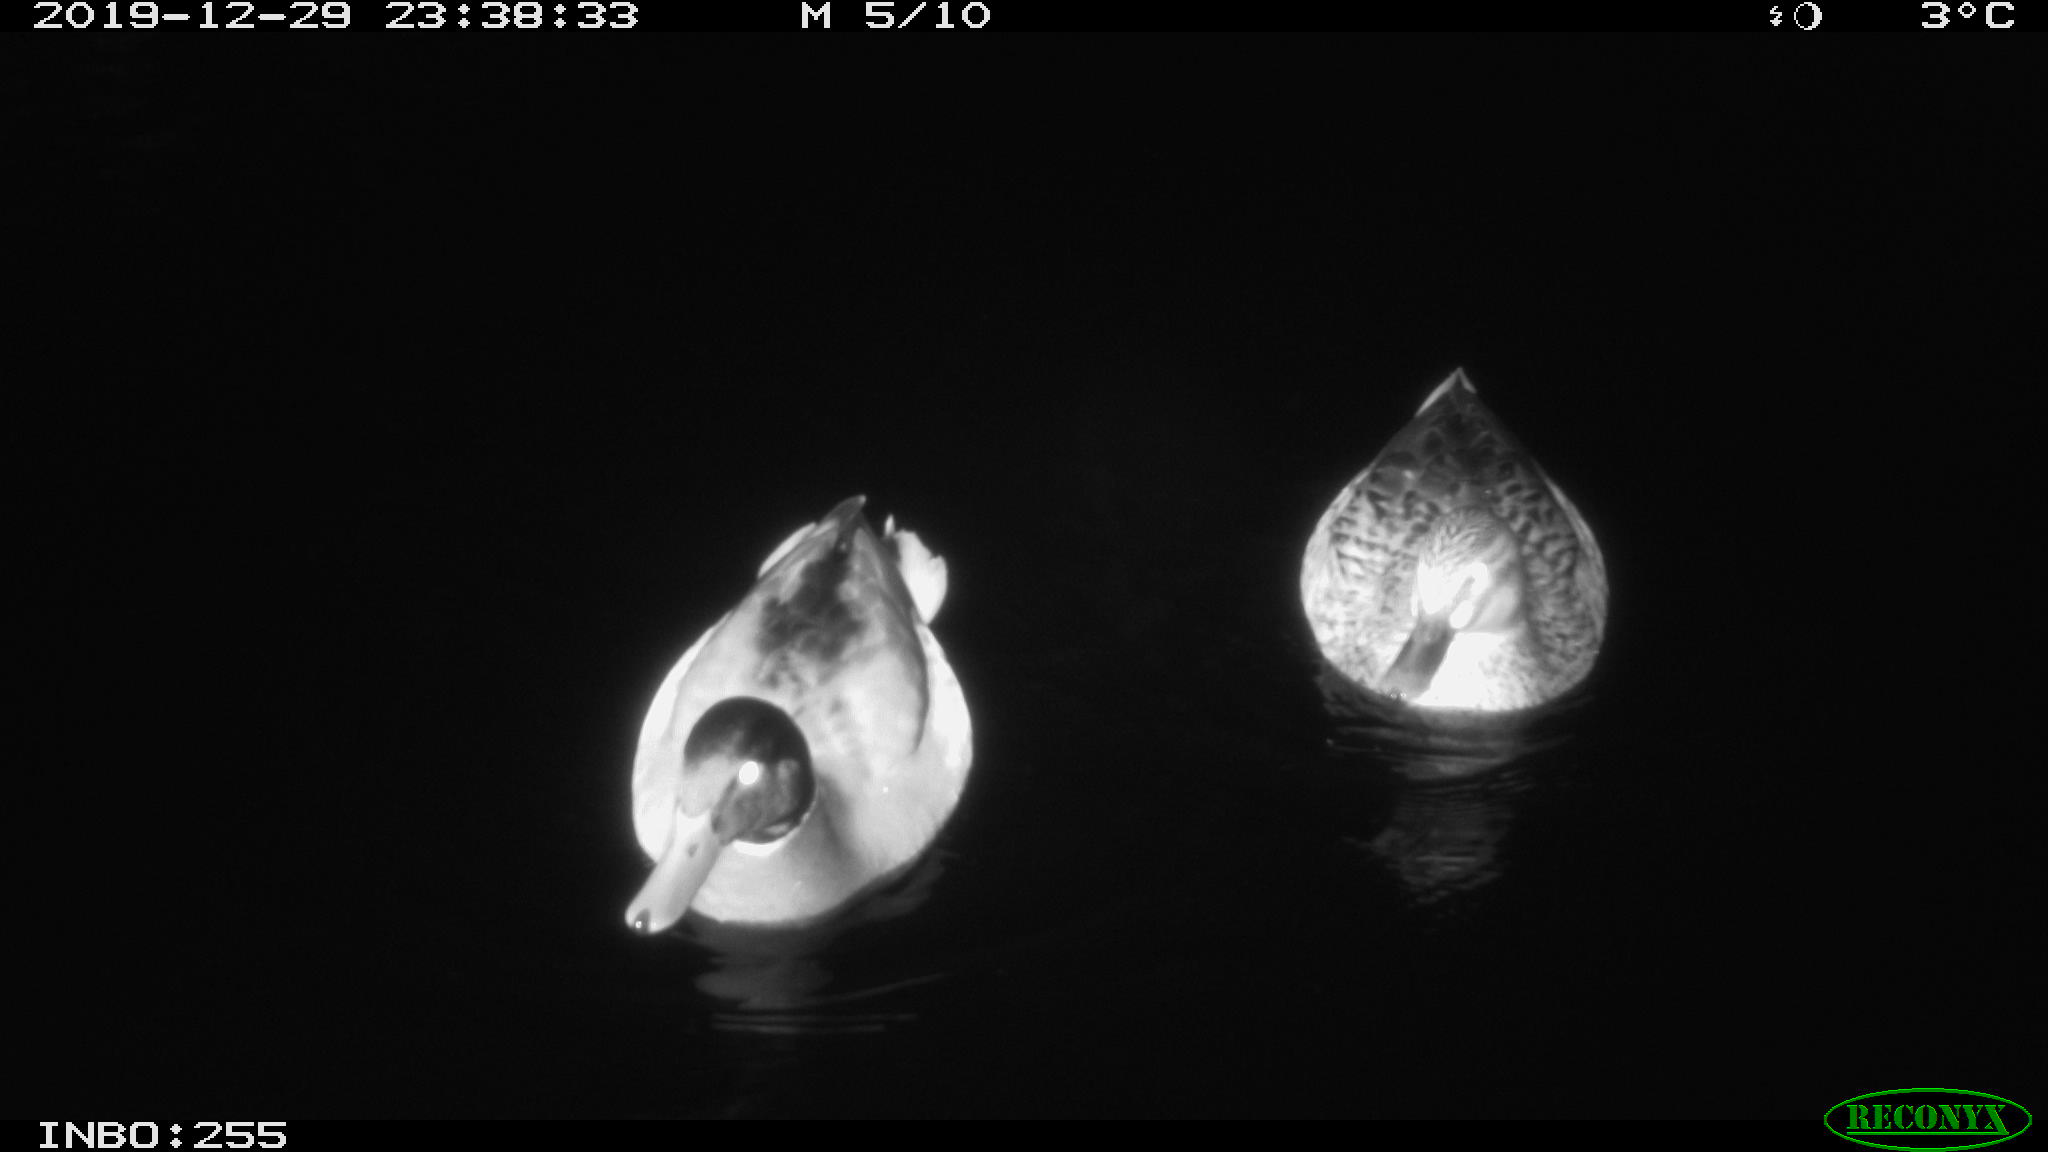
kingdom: Animalia
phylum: Chordata
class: Aves
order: Anseriformes
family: Anatidae
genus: Anas
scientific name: Anas platyrhynchos
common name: Mallard
